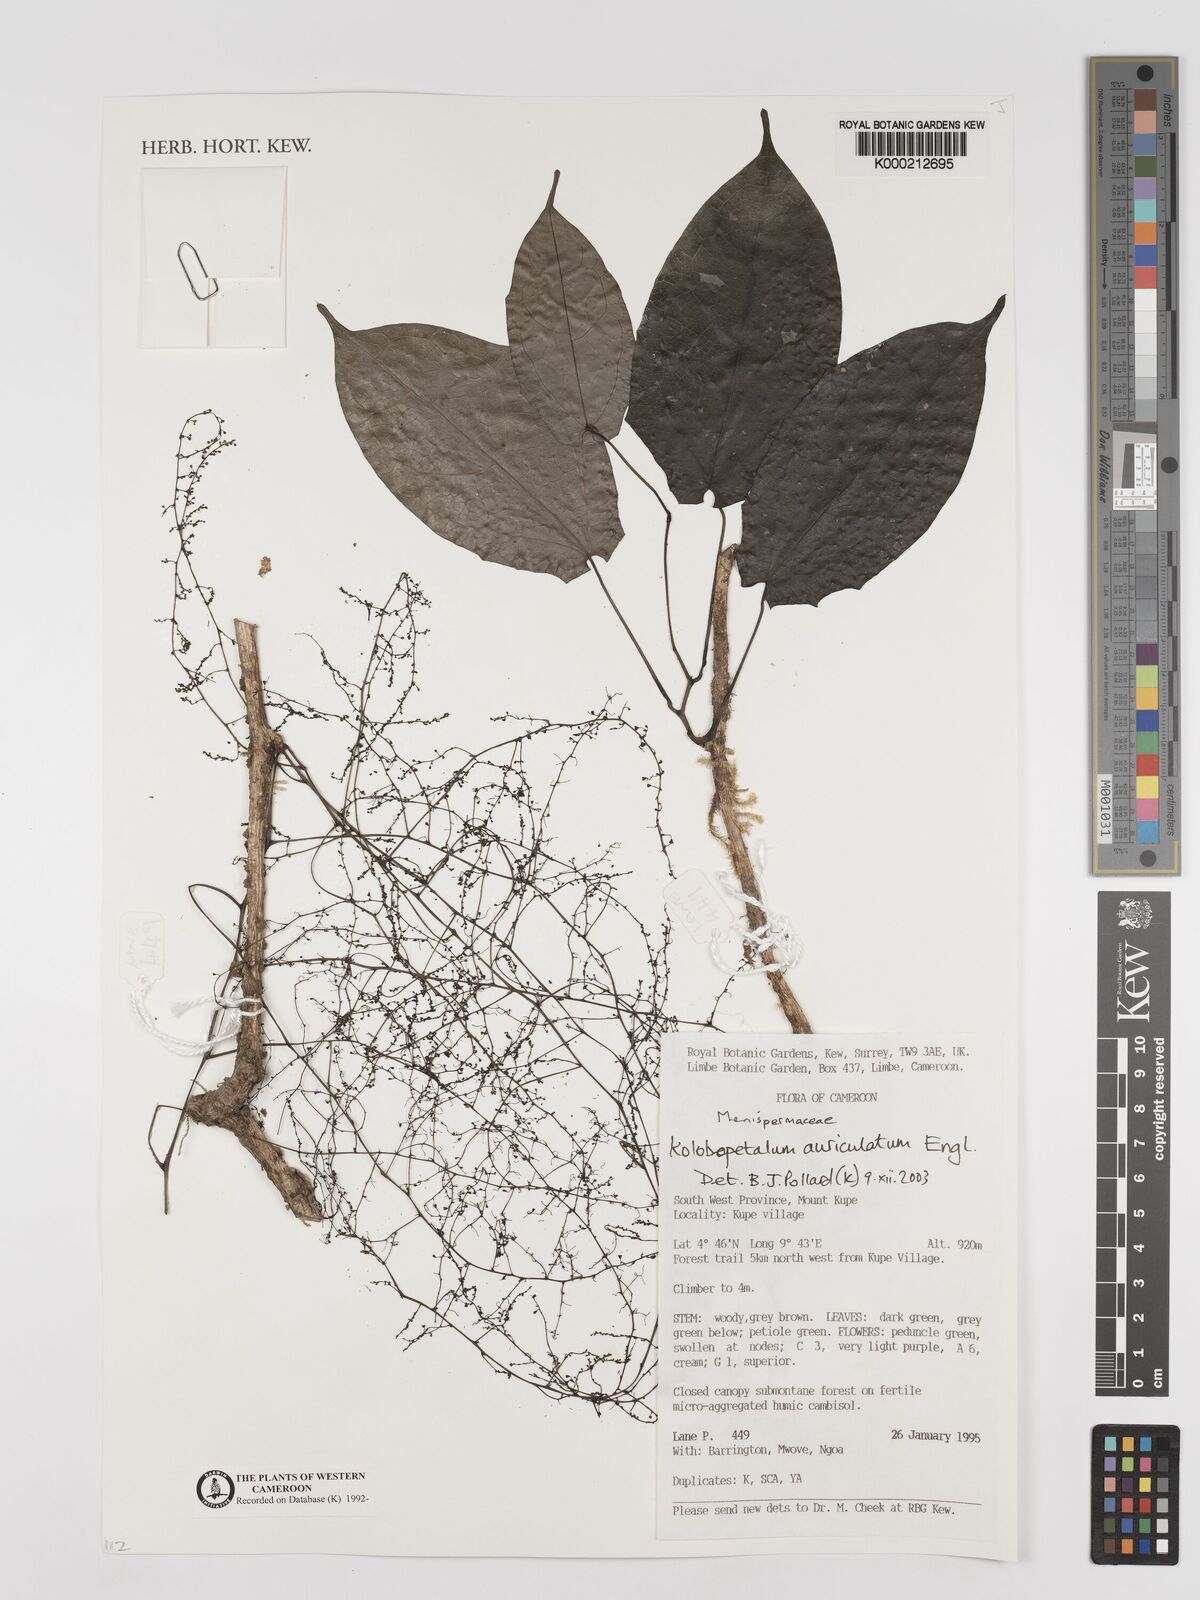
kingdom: Plantae
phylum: Tracheophyta
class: Magnoliopsida
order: Ranunculales
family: Menispermaceae
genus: Kolobopetalum
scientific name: Kolobopetalum auriculatum
